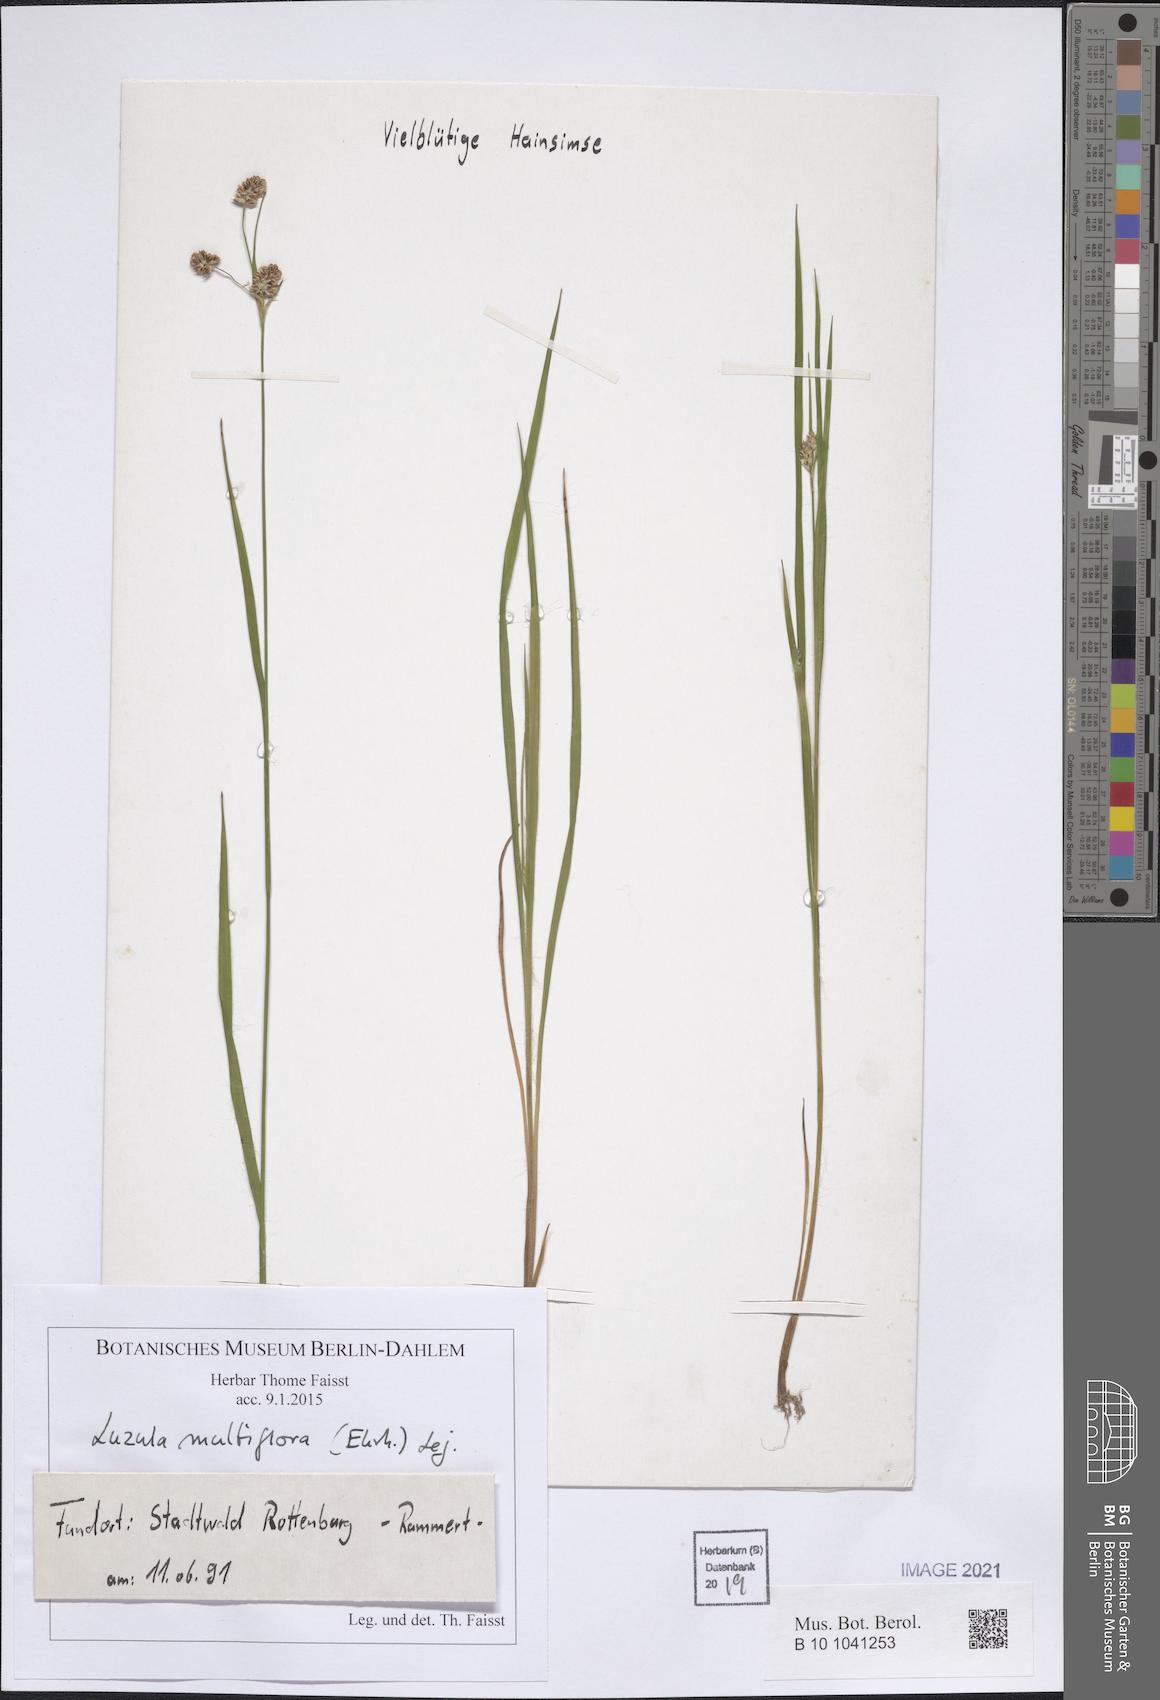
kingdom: Plantae
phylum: Tracheophyta
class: Liliopsida
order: Poales
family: Juncaceae
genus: Luzula
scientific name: Luzula multiflora
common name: Heath wood-rush
